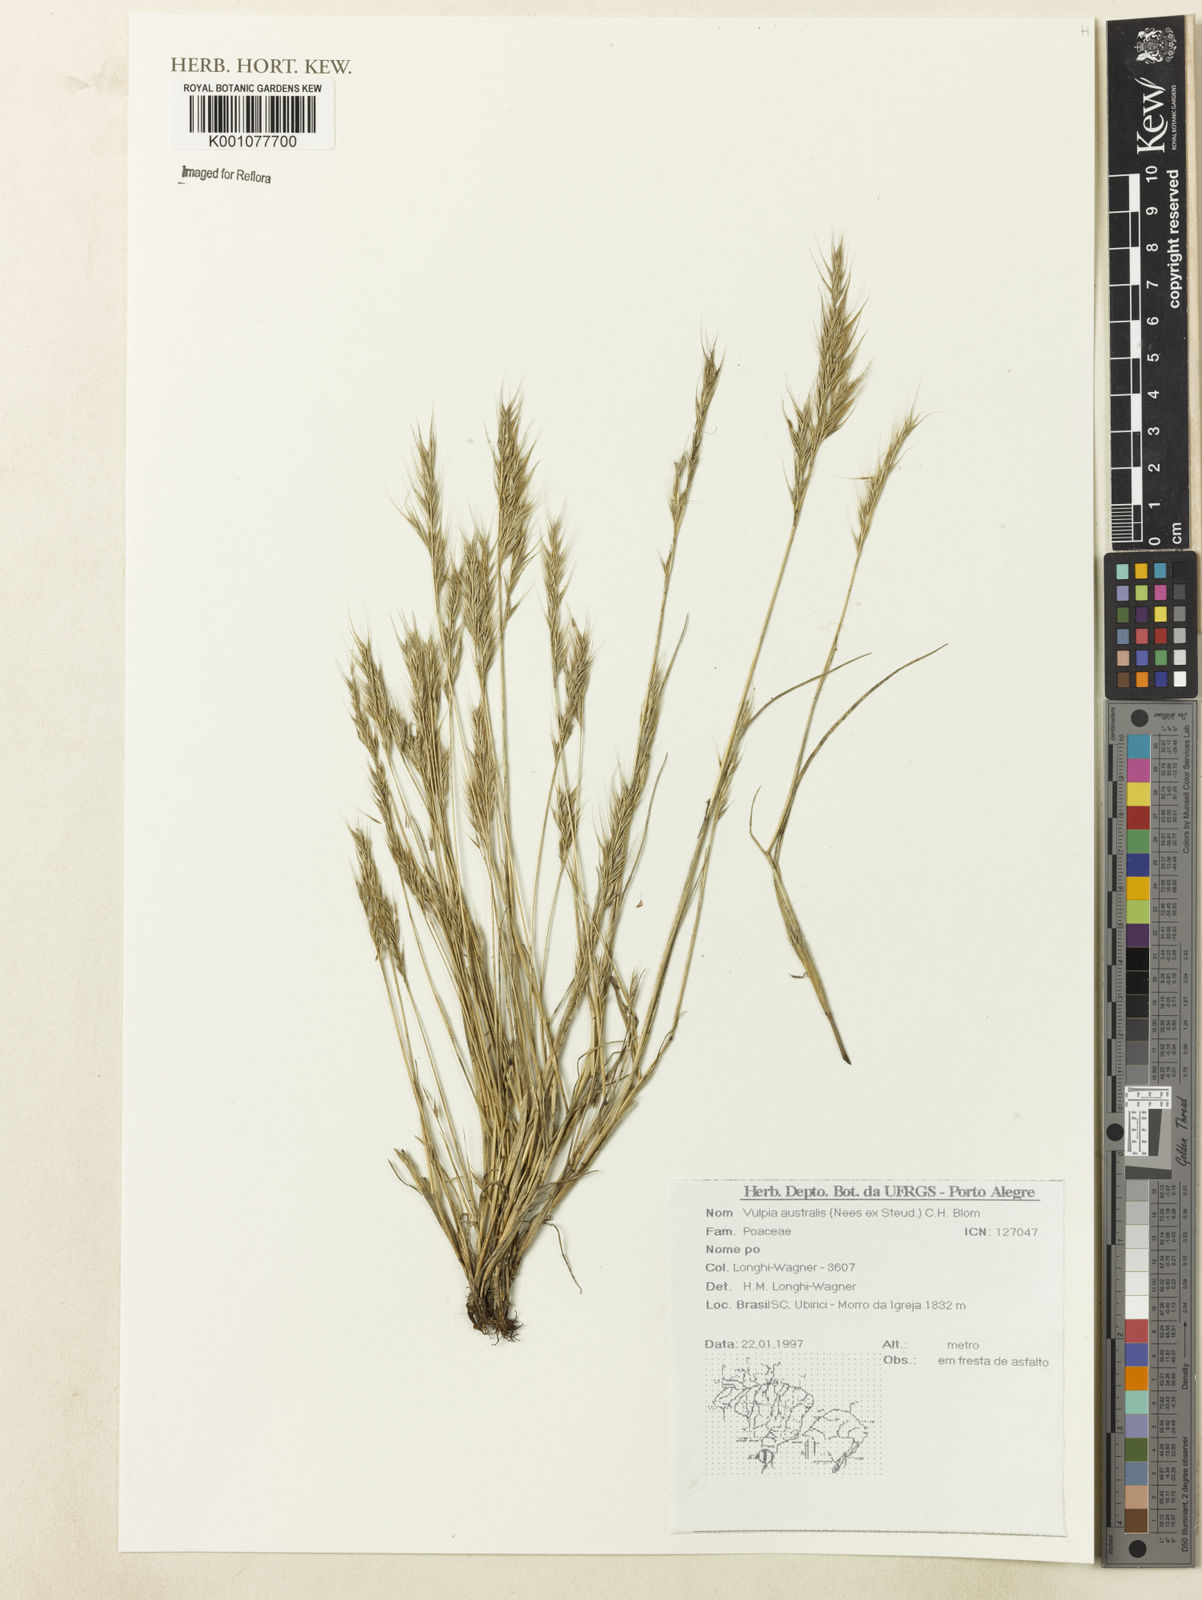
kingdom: Plantae
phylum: Tracheophyta
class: Liliopsida
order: Poales
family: Poaceae
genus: Festuca
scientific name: Festuca australis
